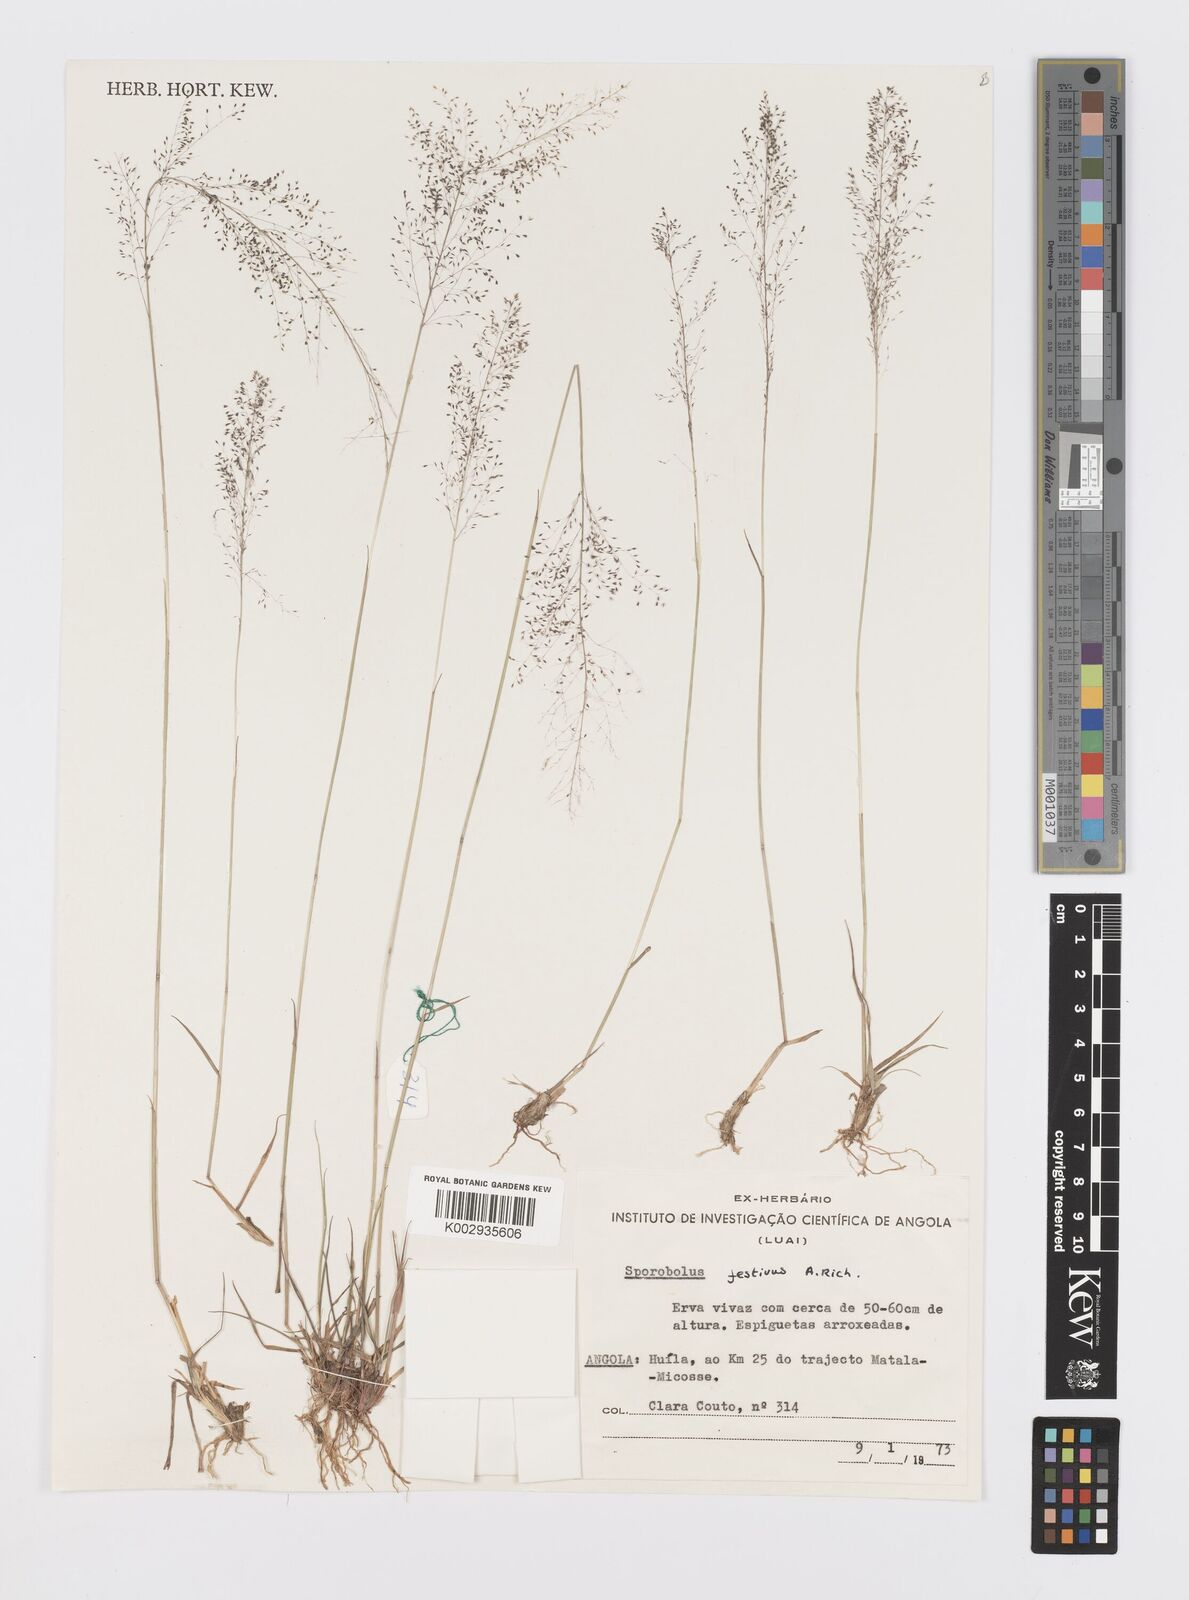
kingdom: Plantae
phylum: Tracheophyta
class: Liliopsida
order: Poales
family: Poaceae
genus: Sporobolus
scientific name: Sporobolus festivus
